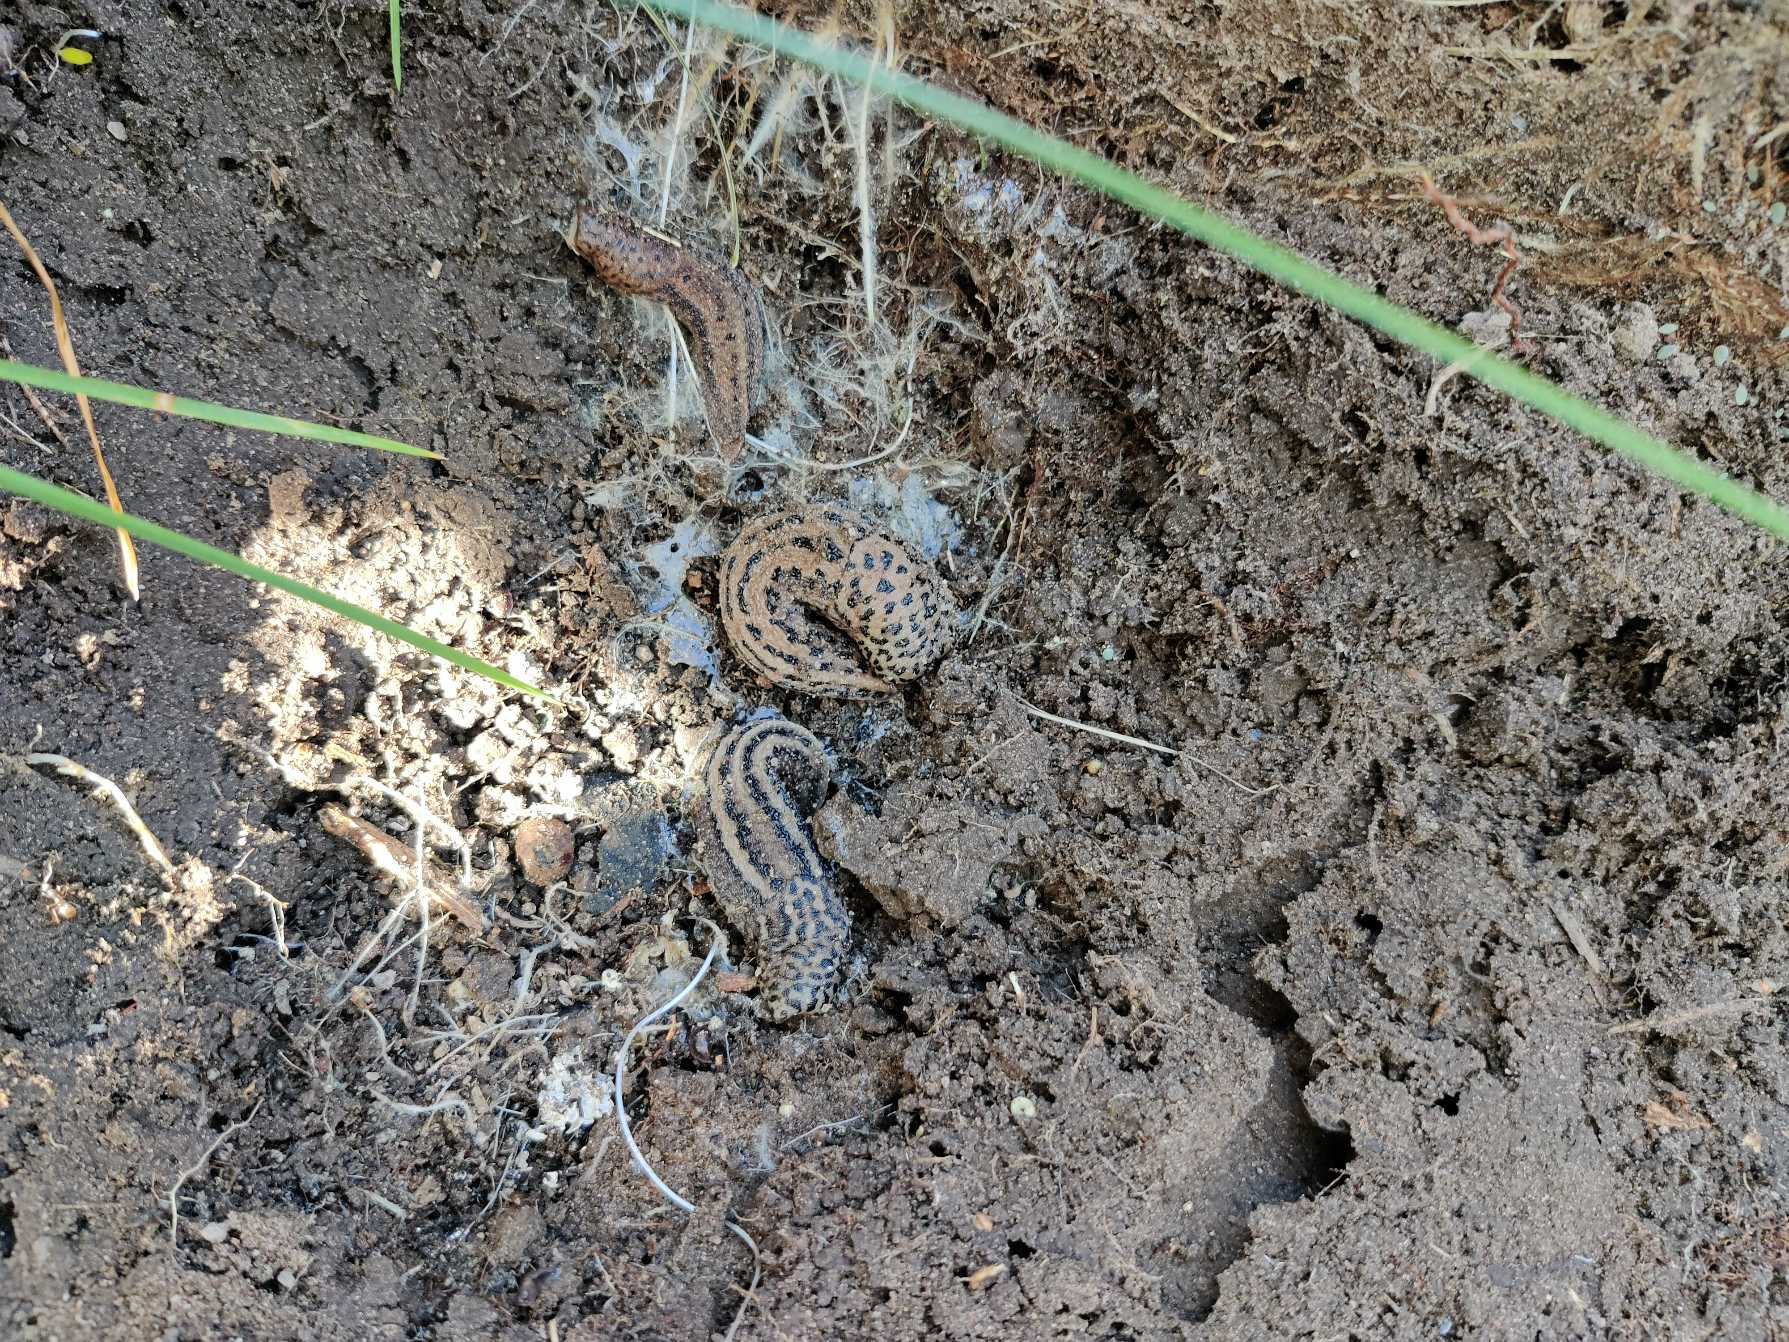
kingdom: Animalia
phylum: Mollusca
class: Gastropoda
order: Stylommatophora
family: Limacidae
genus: Limax
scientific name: Limax maximus
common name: Pantersnegl
